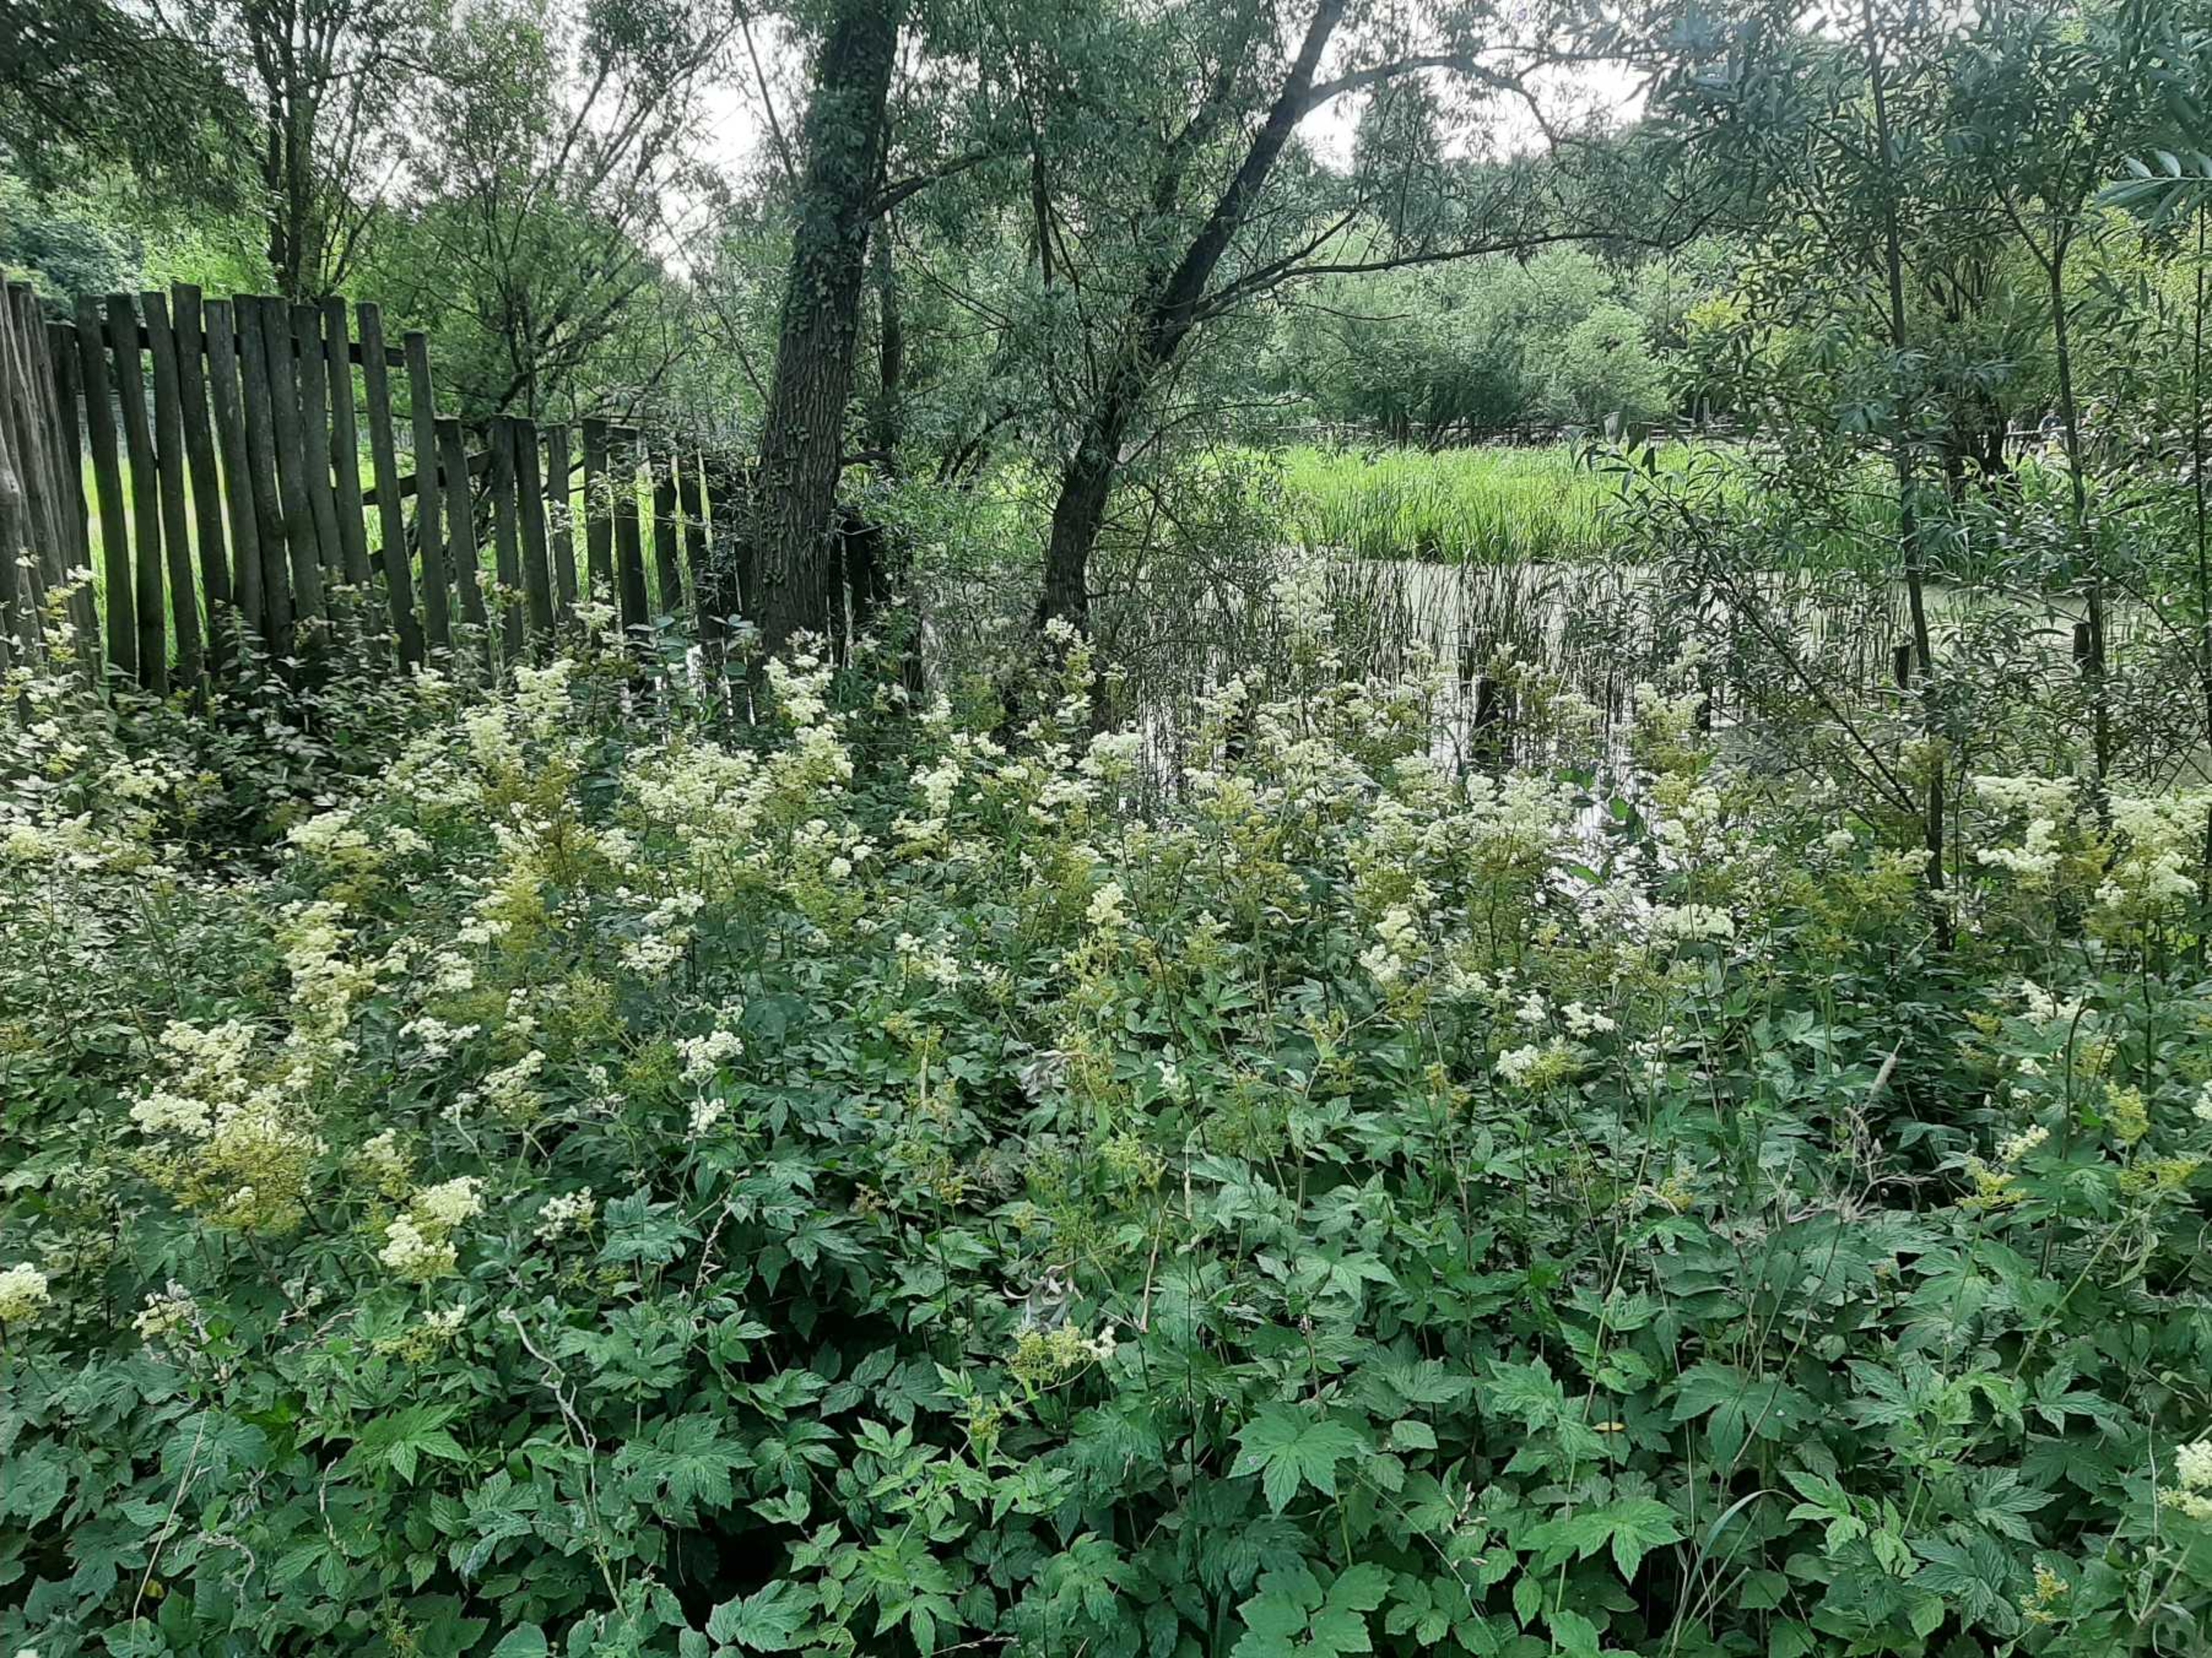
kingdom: Plantae
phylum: Tracheophyta
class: Magnoliopsida
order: Rosales
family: Rosaceae
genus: Filipendula
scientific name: Filipendula ulmaria
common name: Almindelig mjødurt
